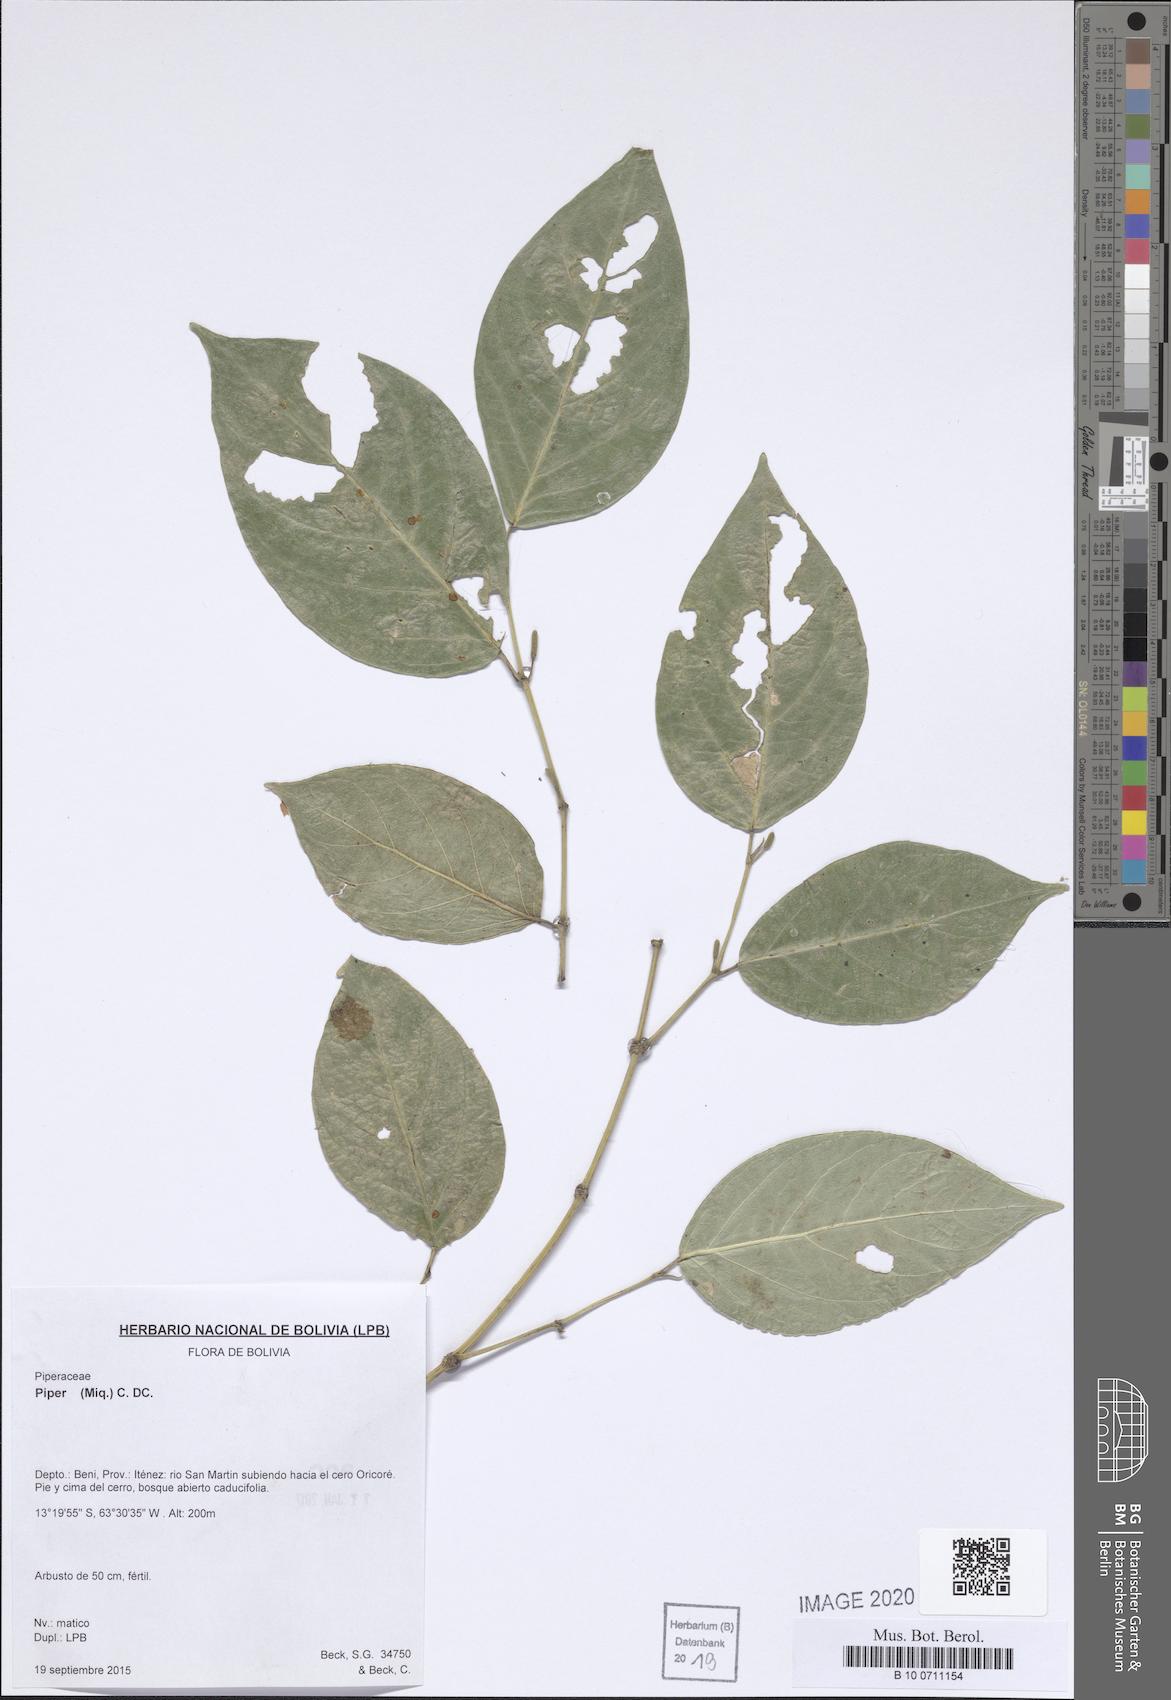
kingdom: Plantae
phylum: Tracheophyta
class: Magnoliopsida
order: Piperales
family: Piperaceae
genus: Piper
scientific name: Piper
